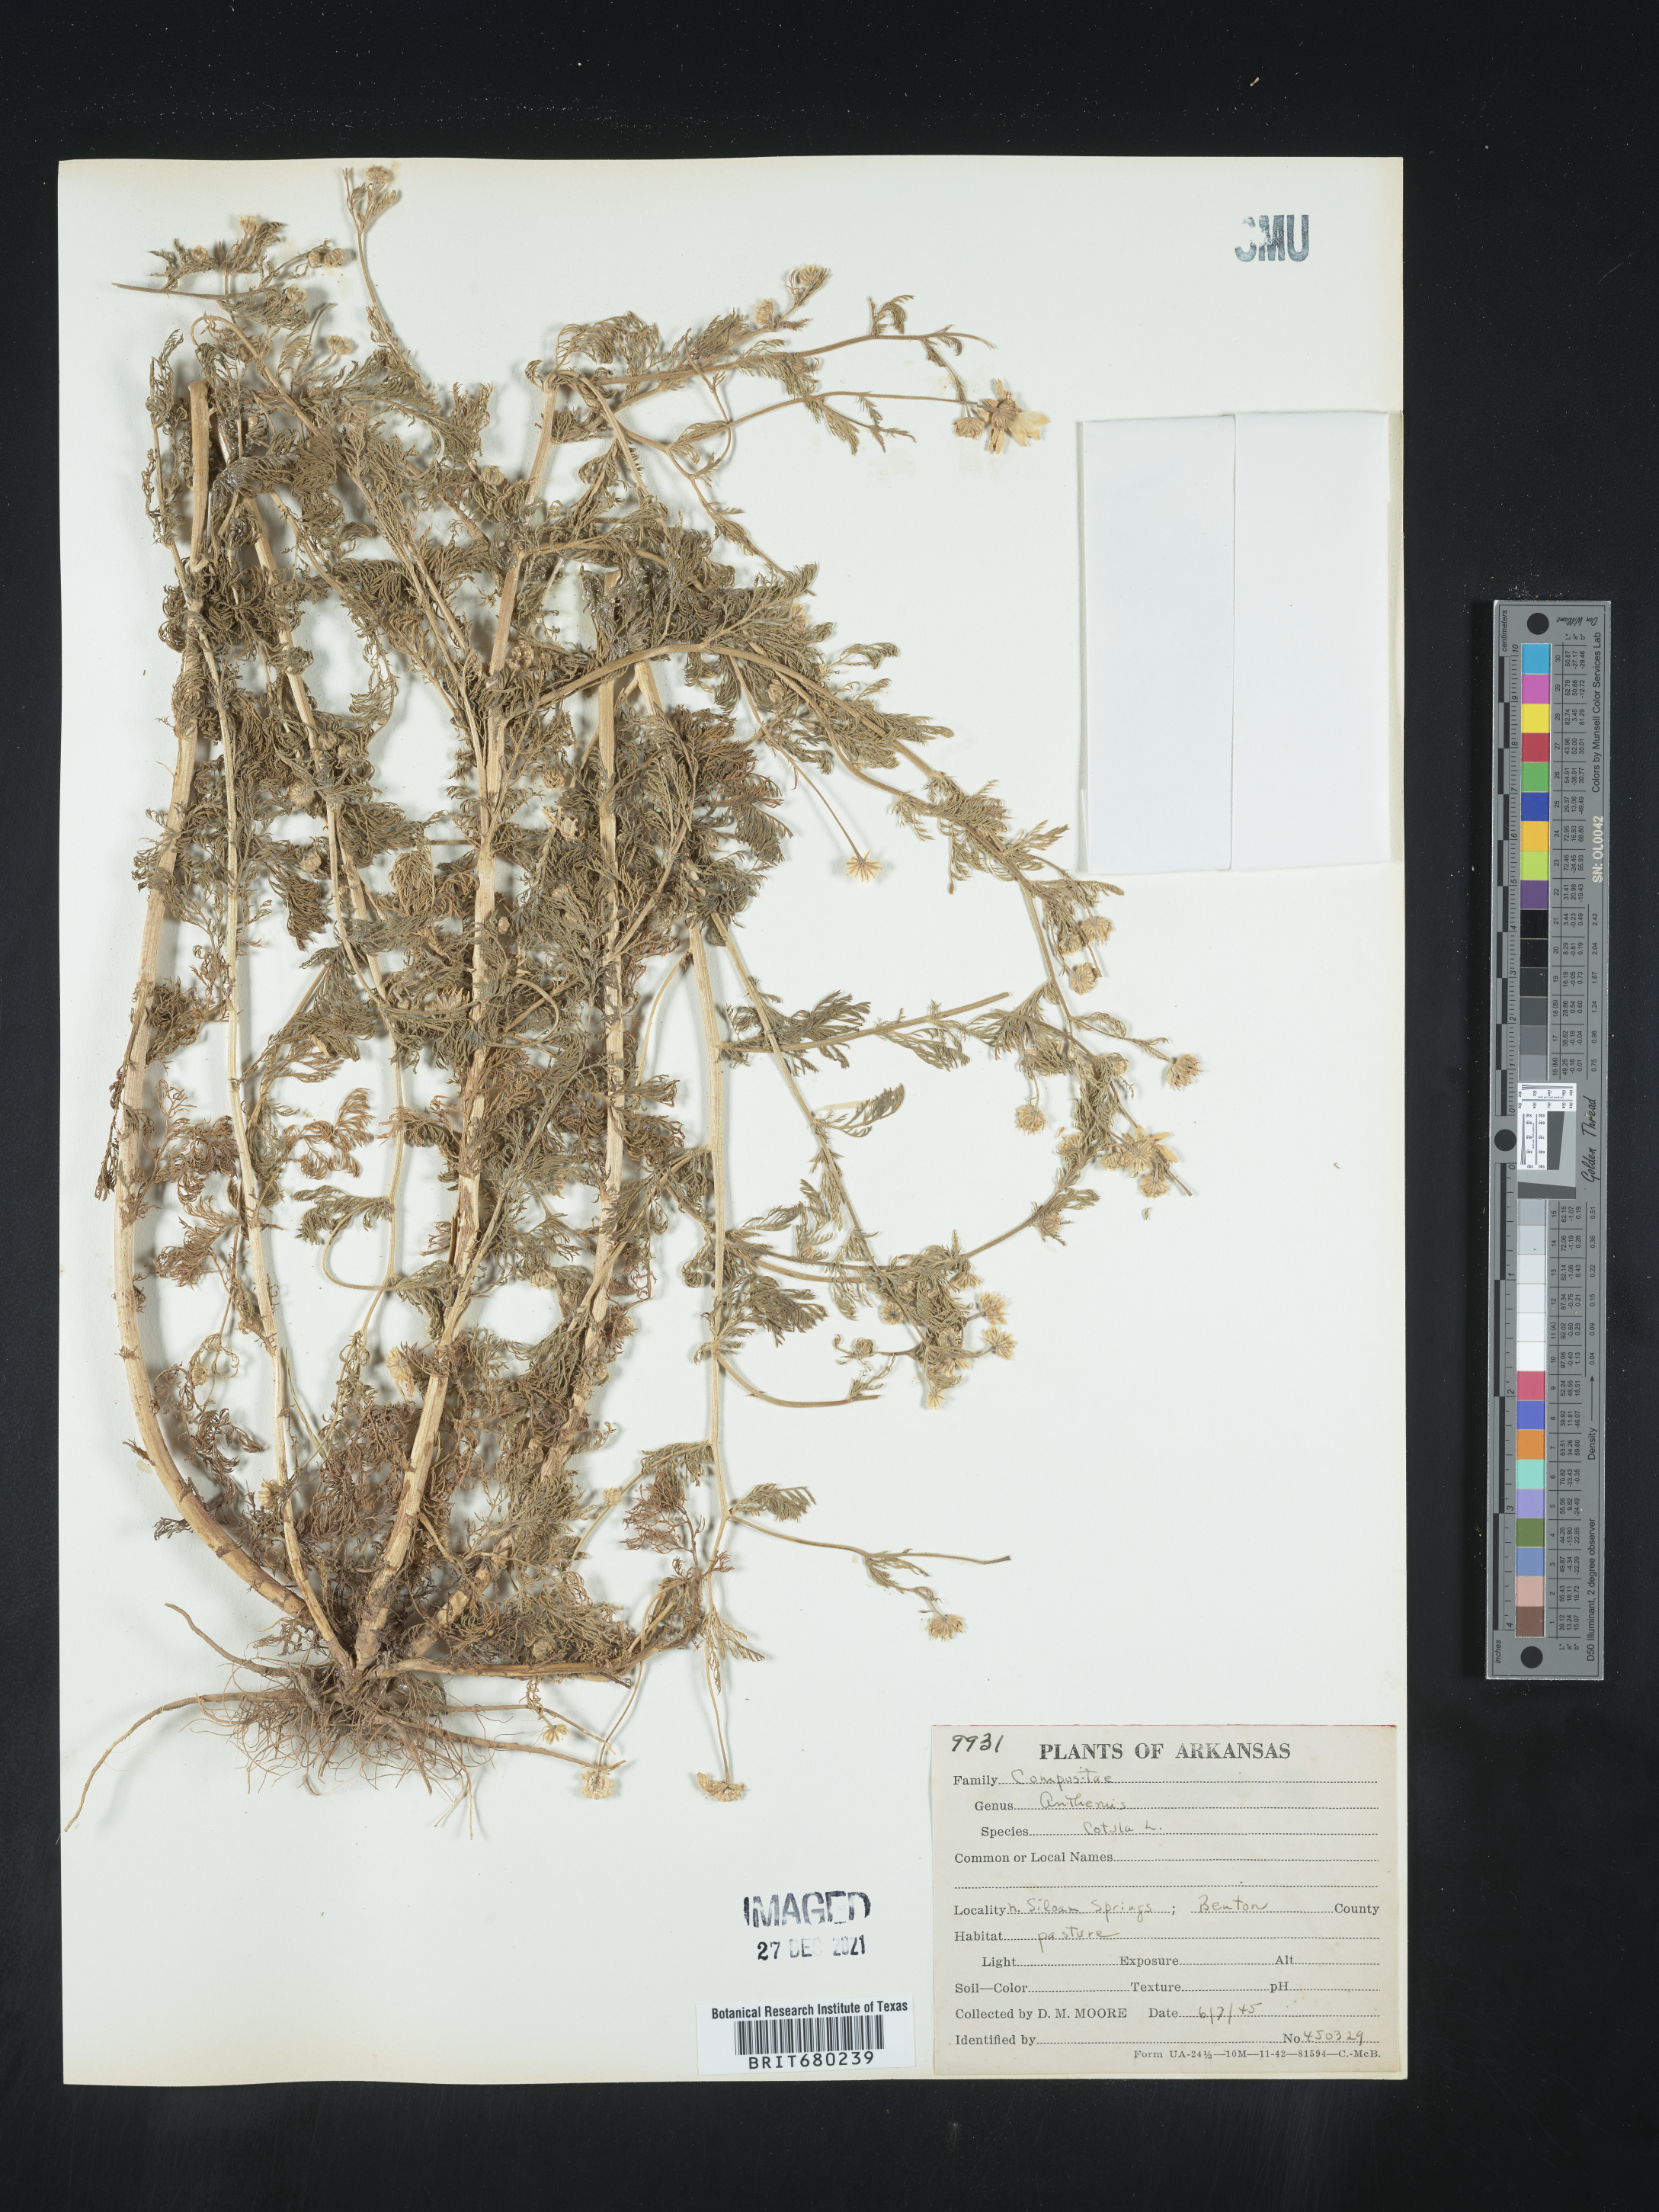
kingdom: Plantae
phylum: Tracheophyta
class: Magnoliopsida
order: Asterales
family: Asteraceae
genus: Anthemis
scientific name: Anthemis cotula
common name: Stinking chamomile
